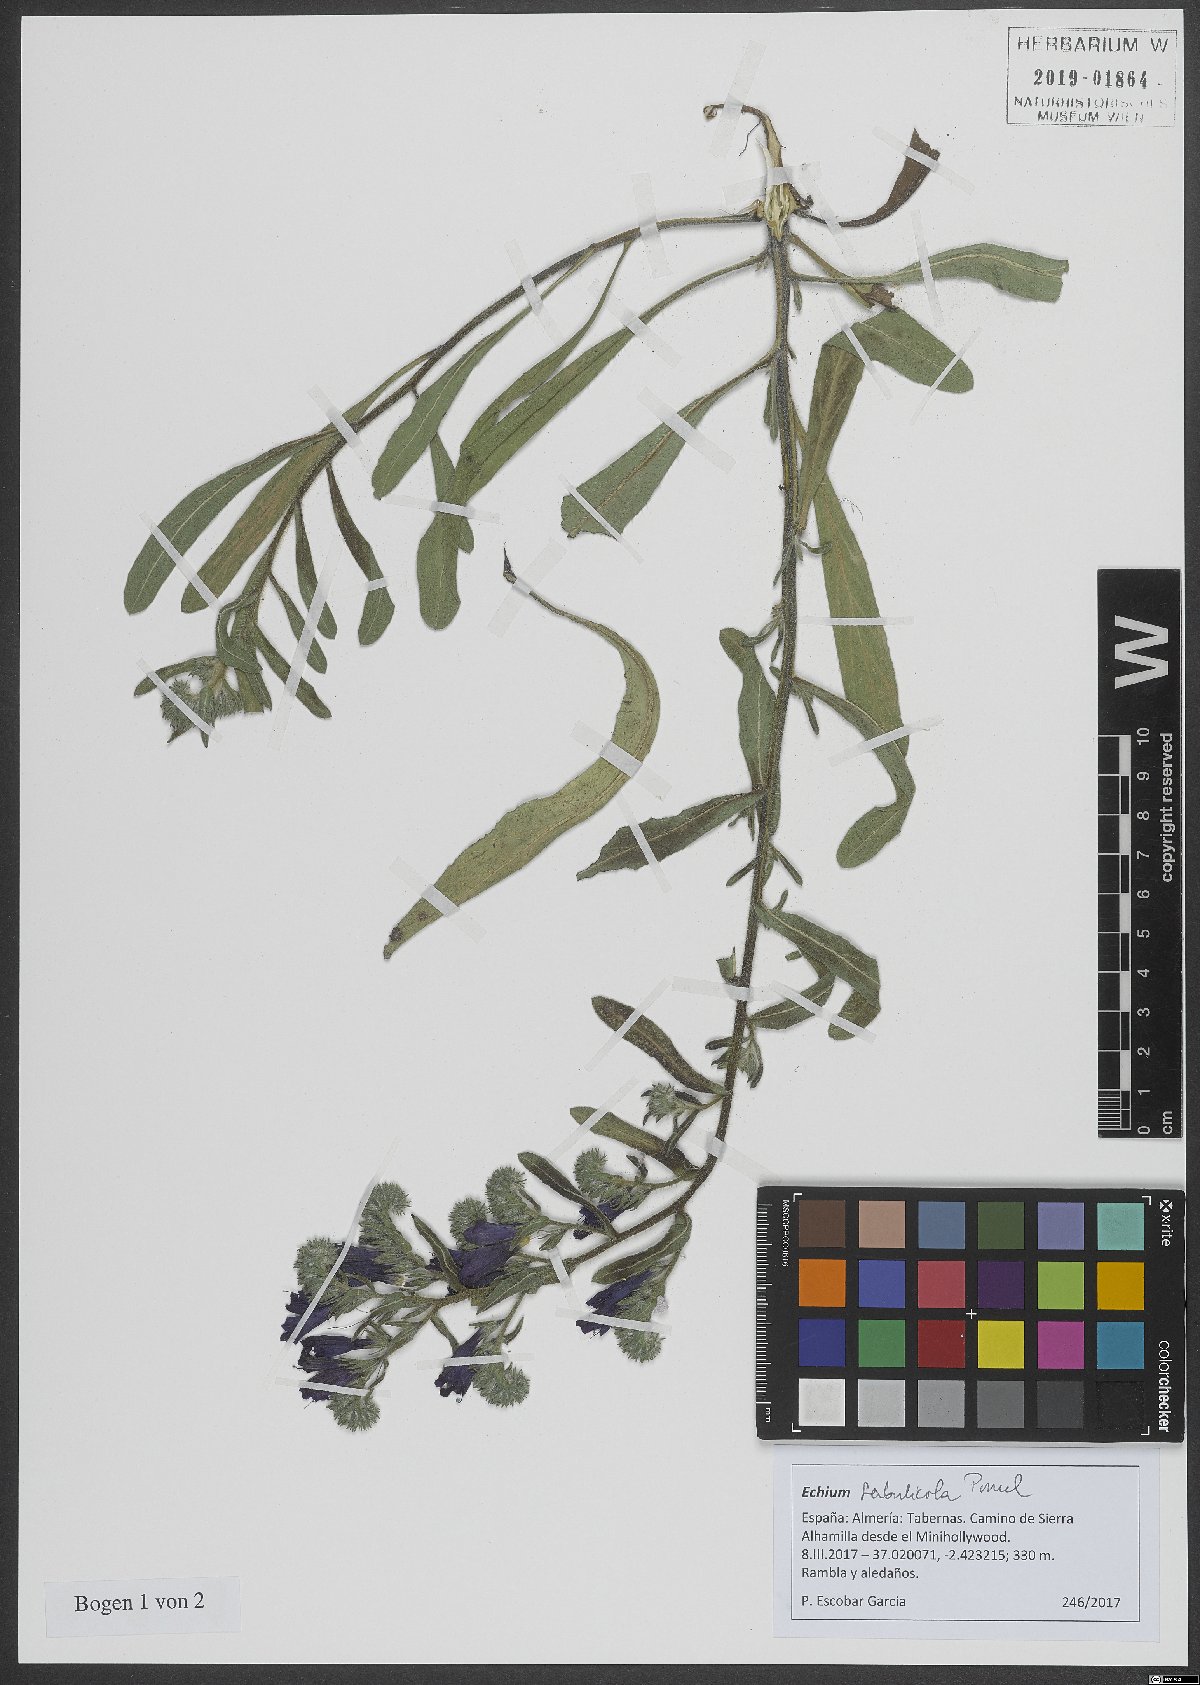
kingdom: Plantae
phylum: Tracheophyta
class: Magnoliopsida
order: Boraginales
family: Boraginaceae
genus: Echium
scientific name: Echium sabulicola
